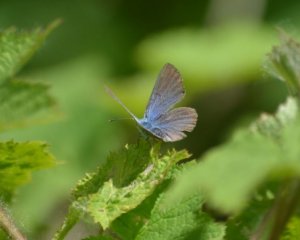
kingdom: Animalia
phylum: Arthropoda
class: Insecta
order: Lepidoptera
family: Lycaenidae
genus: Glaucopsyche
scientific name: Glaucopsyche lygdamus
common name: Silvery Blue
